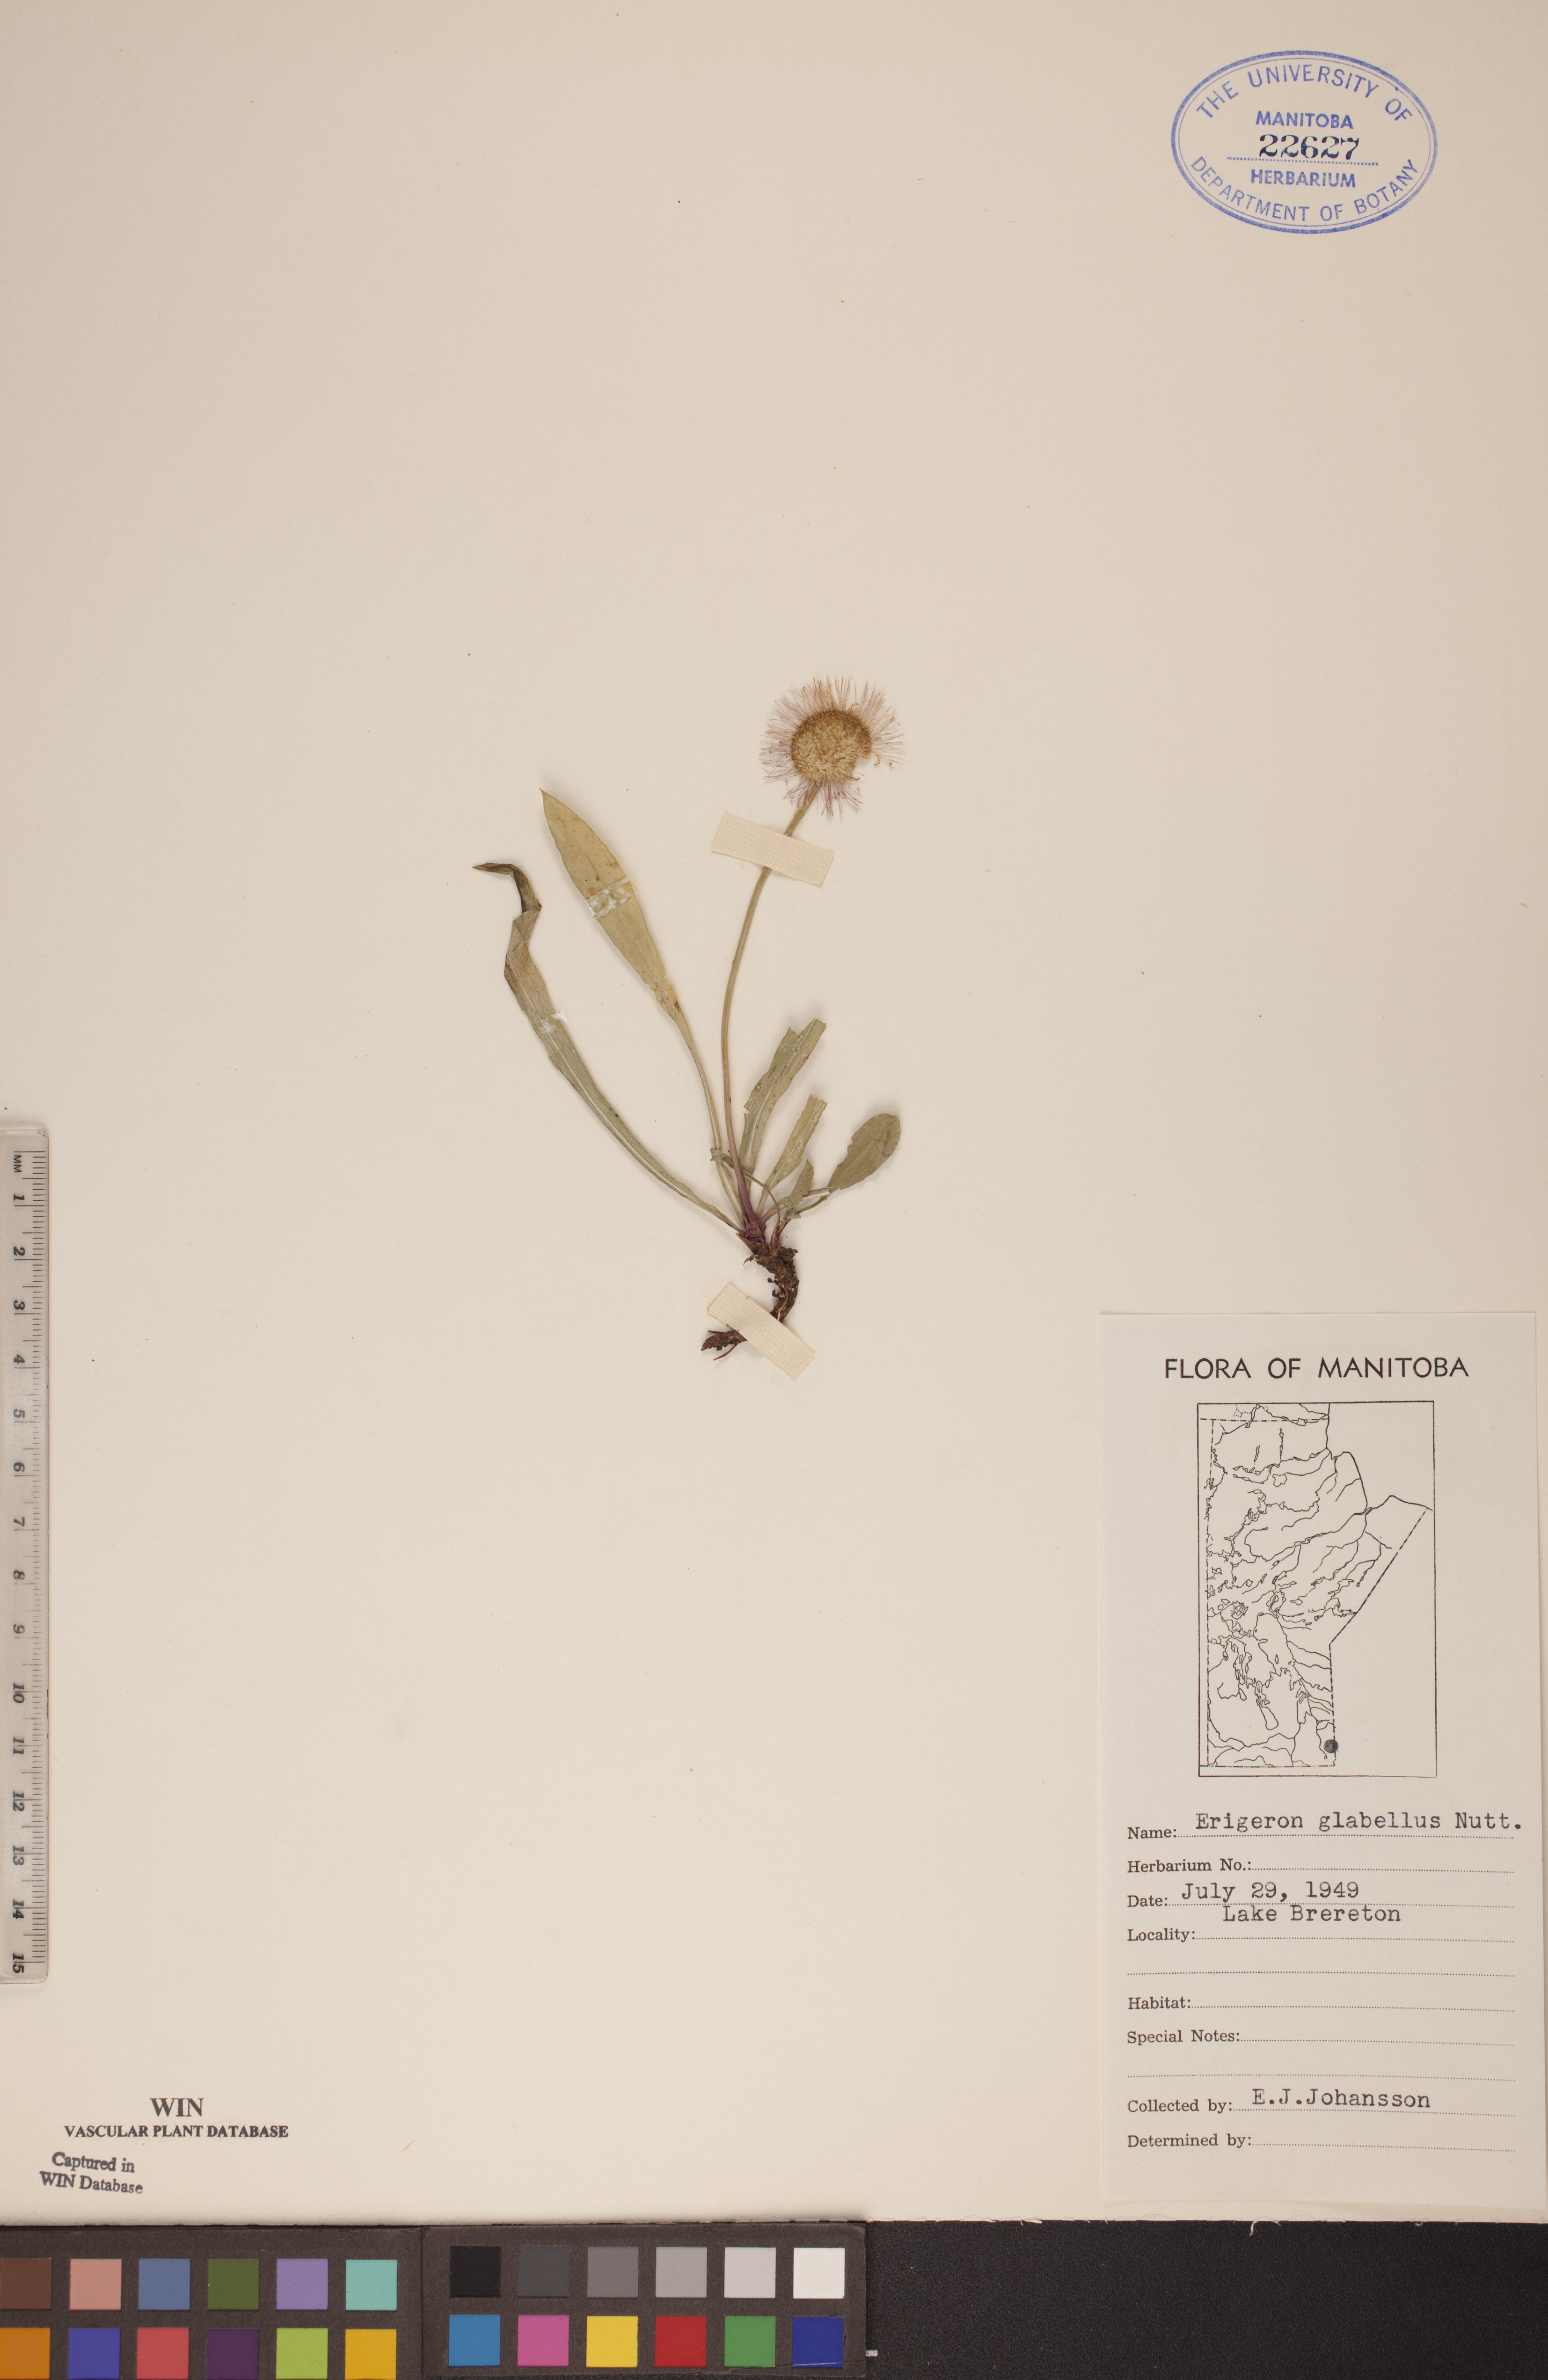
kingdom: Plantae
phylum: Tracheophyta
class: Magnoliopsida
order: Asterales
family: Asteraceae
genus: Erigeron
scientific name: Erigeron glabellus
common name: Smooth fleabane
